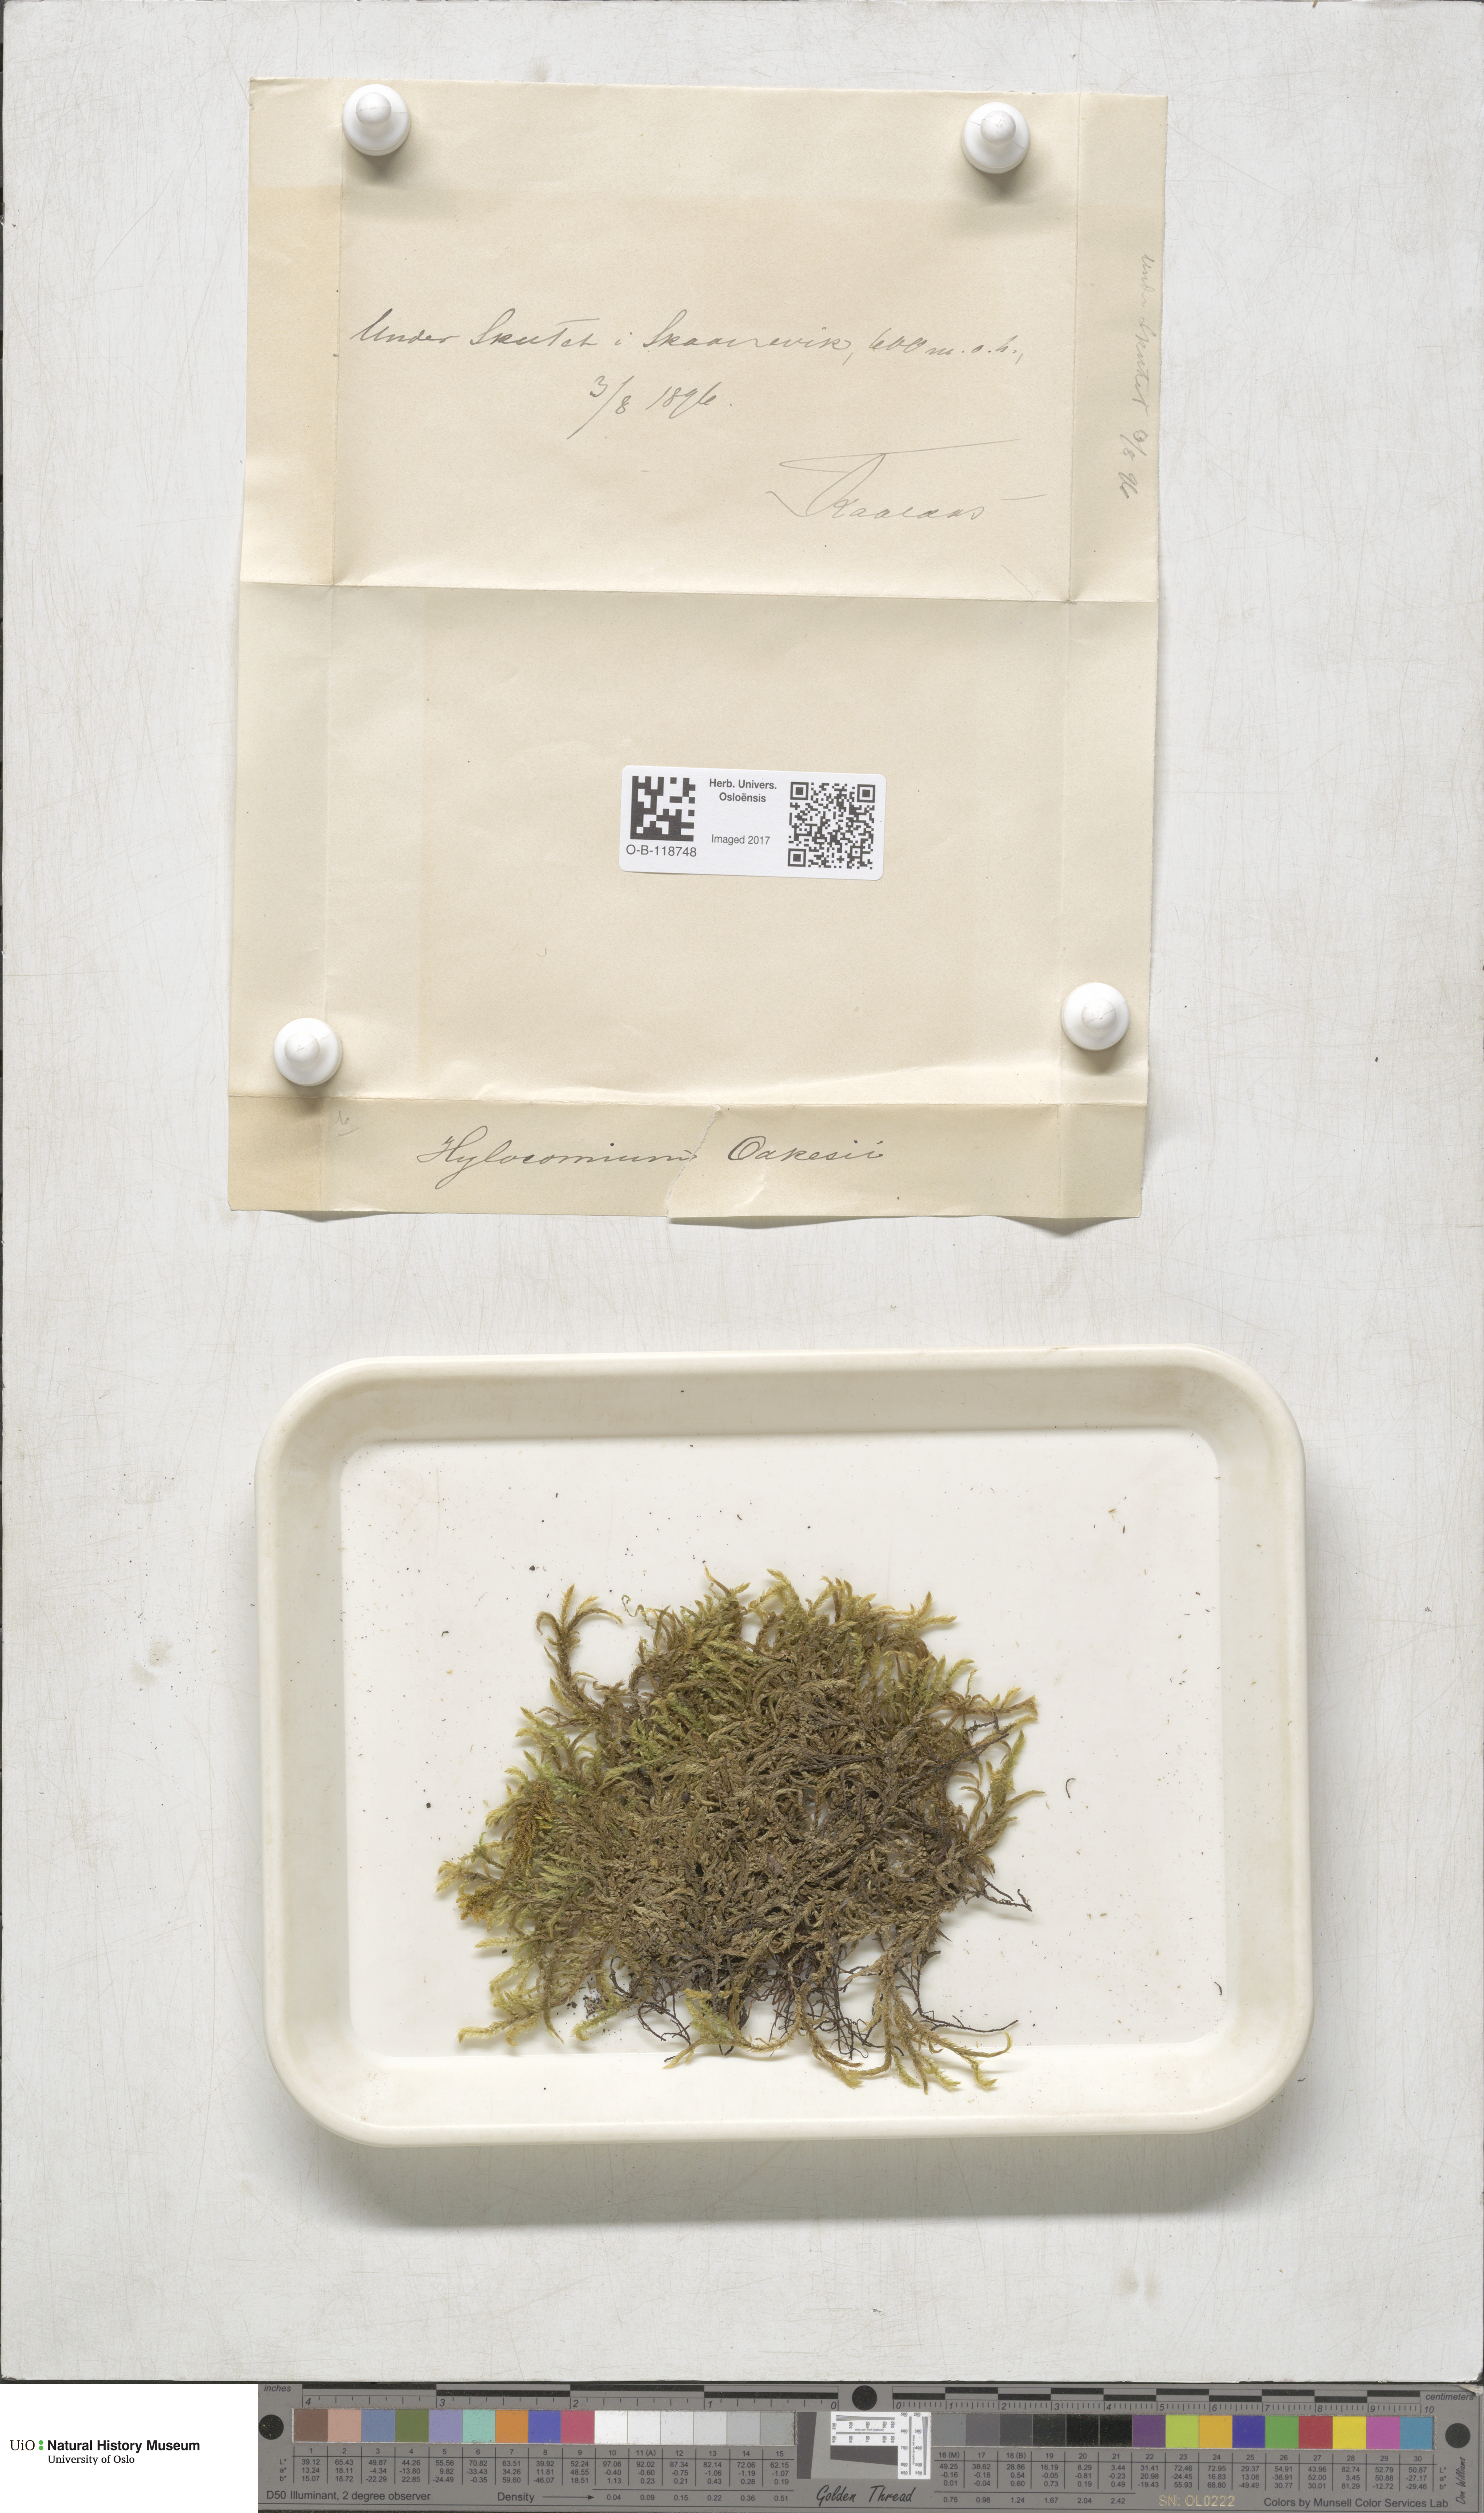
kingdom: Plantae
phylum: Bryophyta
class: Bryopsida
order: Hypnales
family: Hylocomiaceae
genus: Hylocomiastrum
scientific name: Hylocomiastrum pyrenaicum
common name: Oake s wood moss
